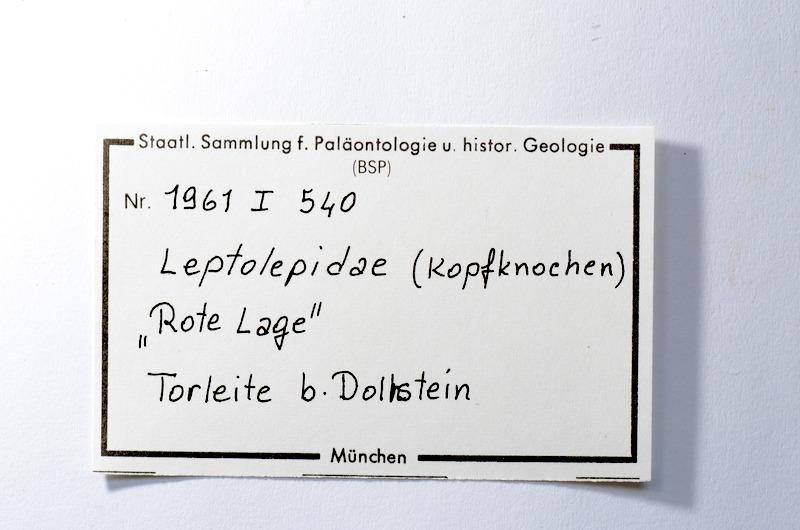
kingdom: Animalia
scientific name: Animalia
